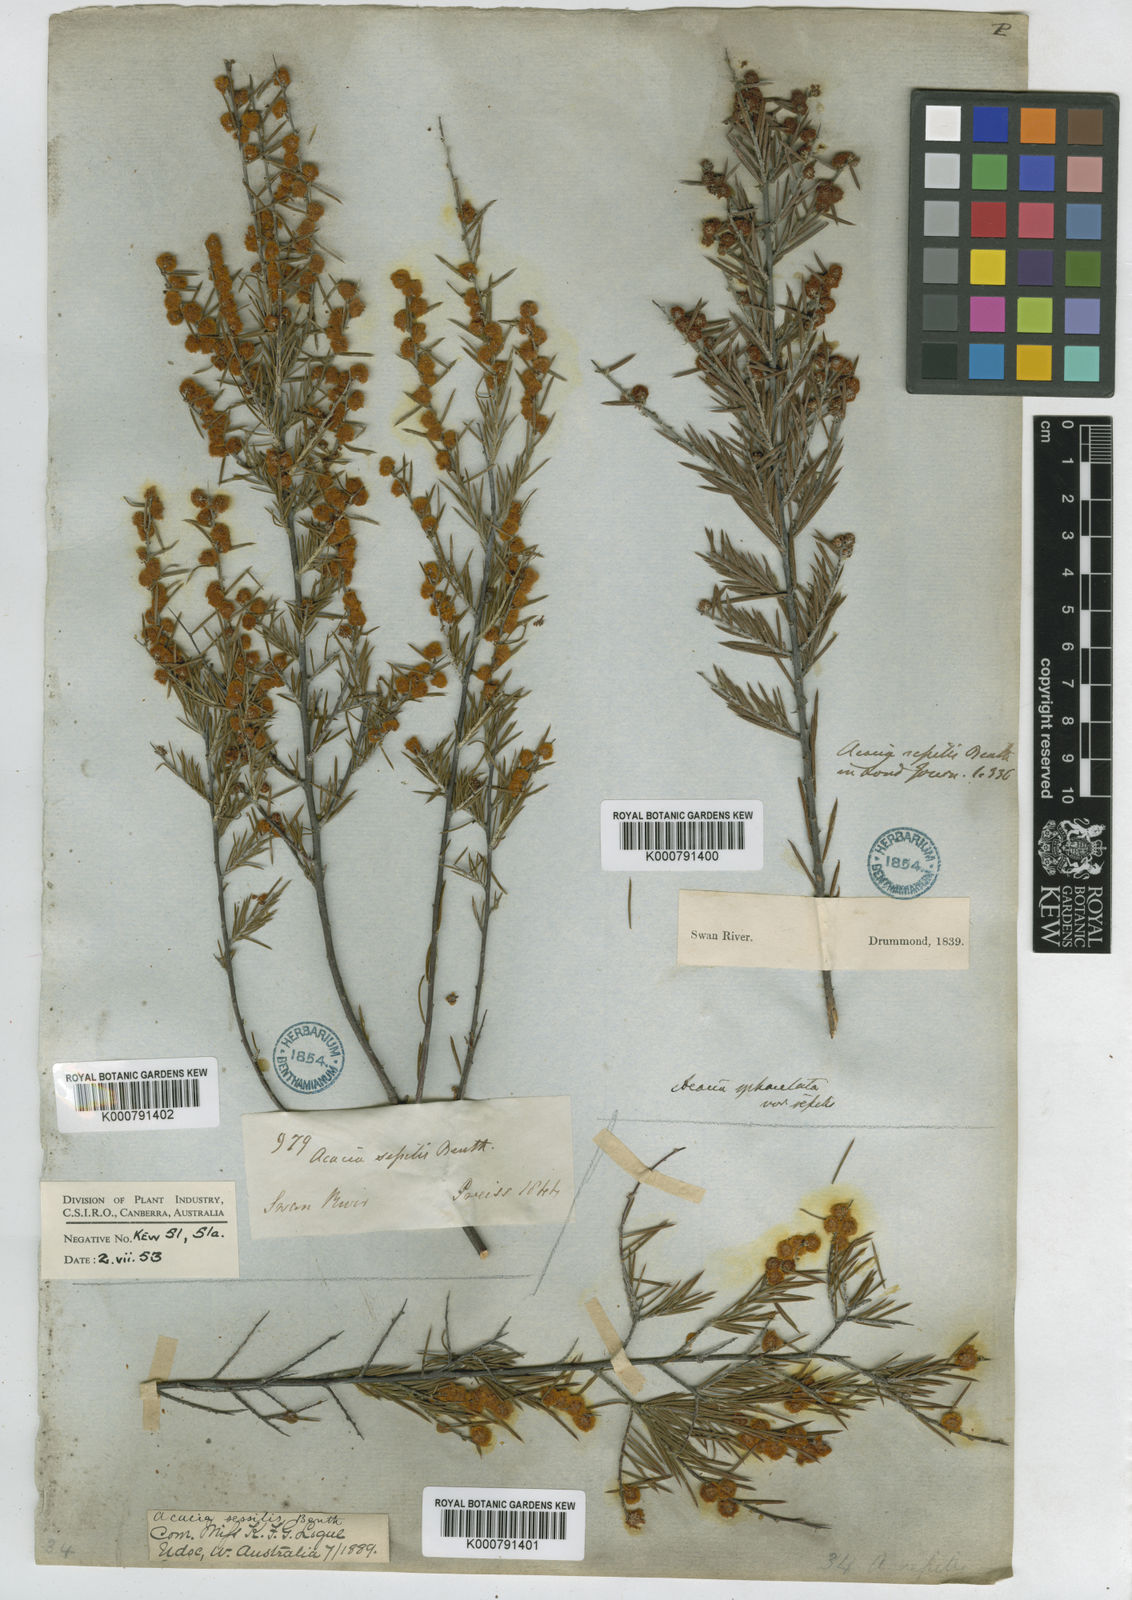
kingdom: Plantae
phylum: Tracheophyta
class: Magnoliopsida
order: Fabales
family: Fabaceae
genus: Acacia
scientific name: Acacia sphacelata
